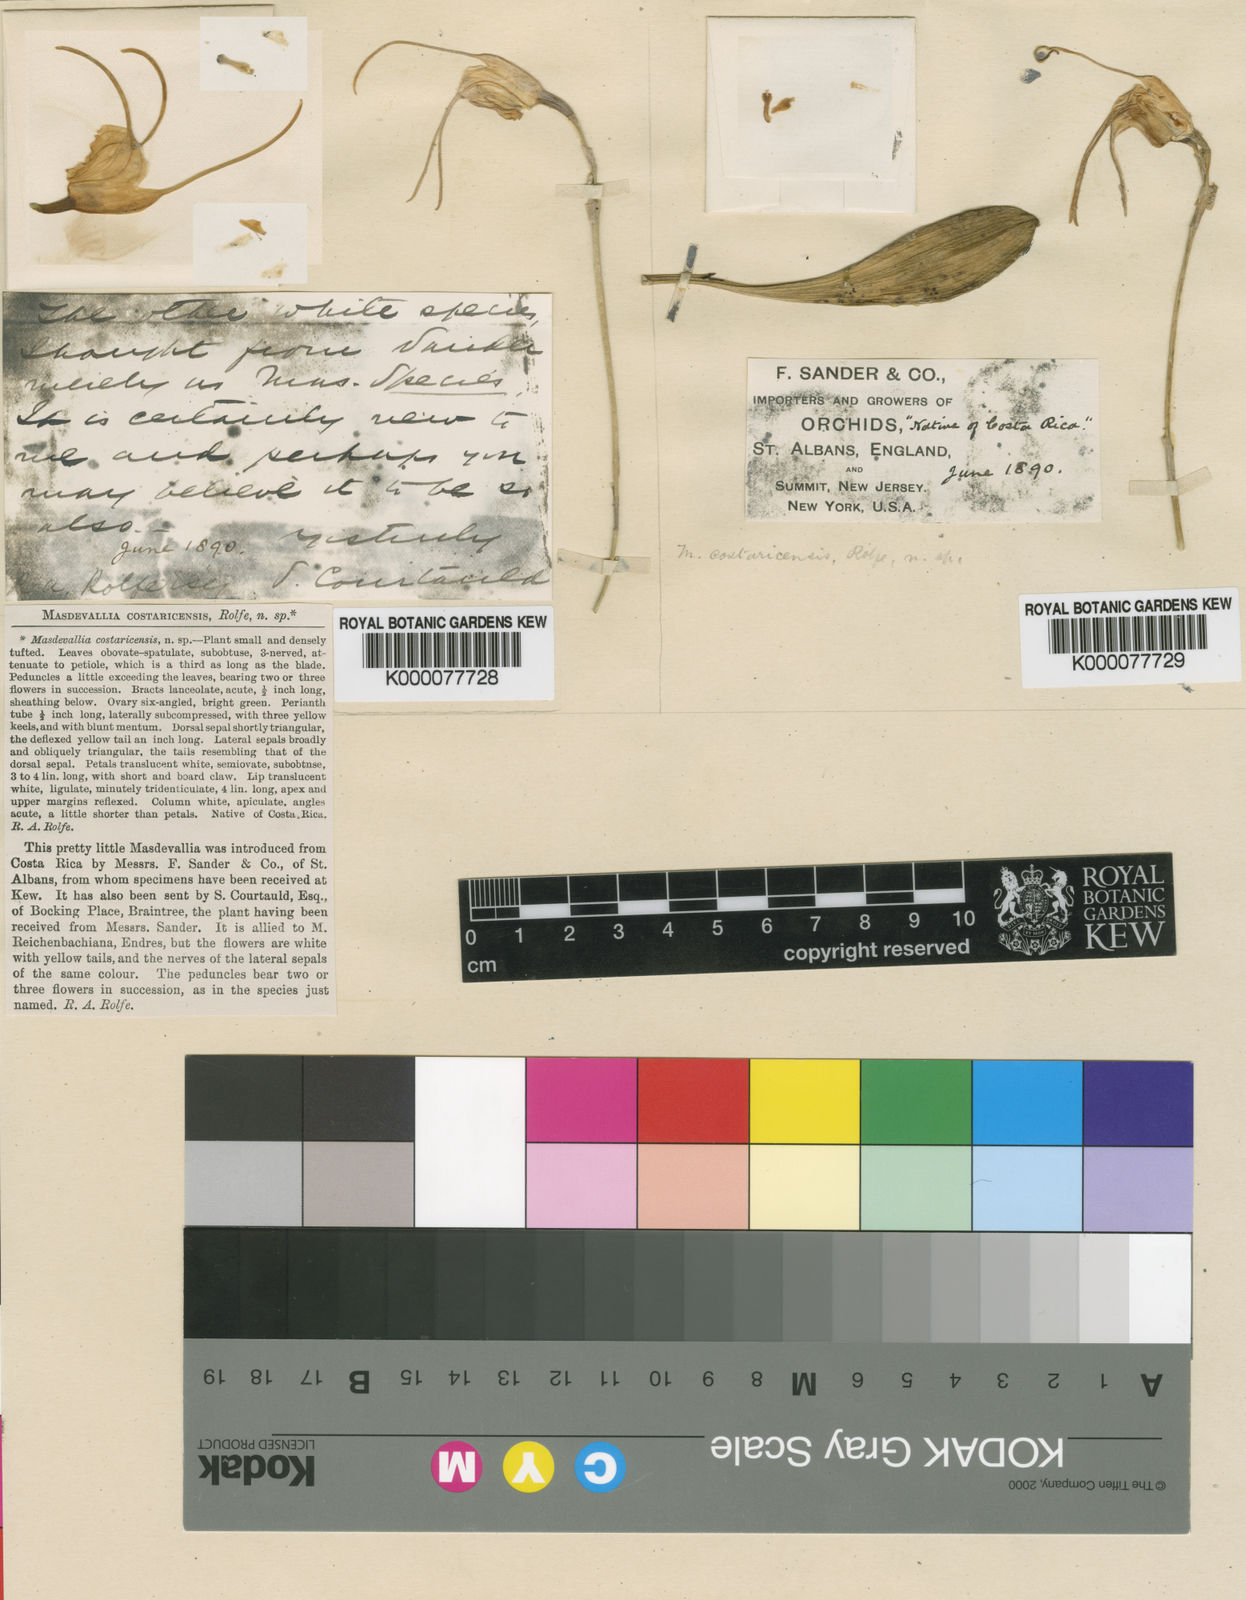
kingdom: Plantae
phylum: Tracheophyta
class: Liliopsida
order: Asparagales
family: Orchidaceae
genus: Masdevallia
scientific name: Masdevallia marginella
